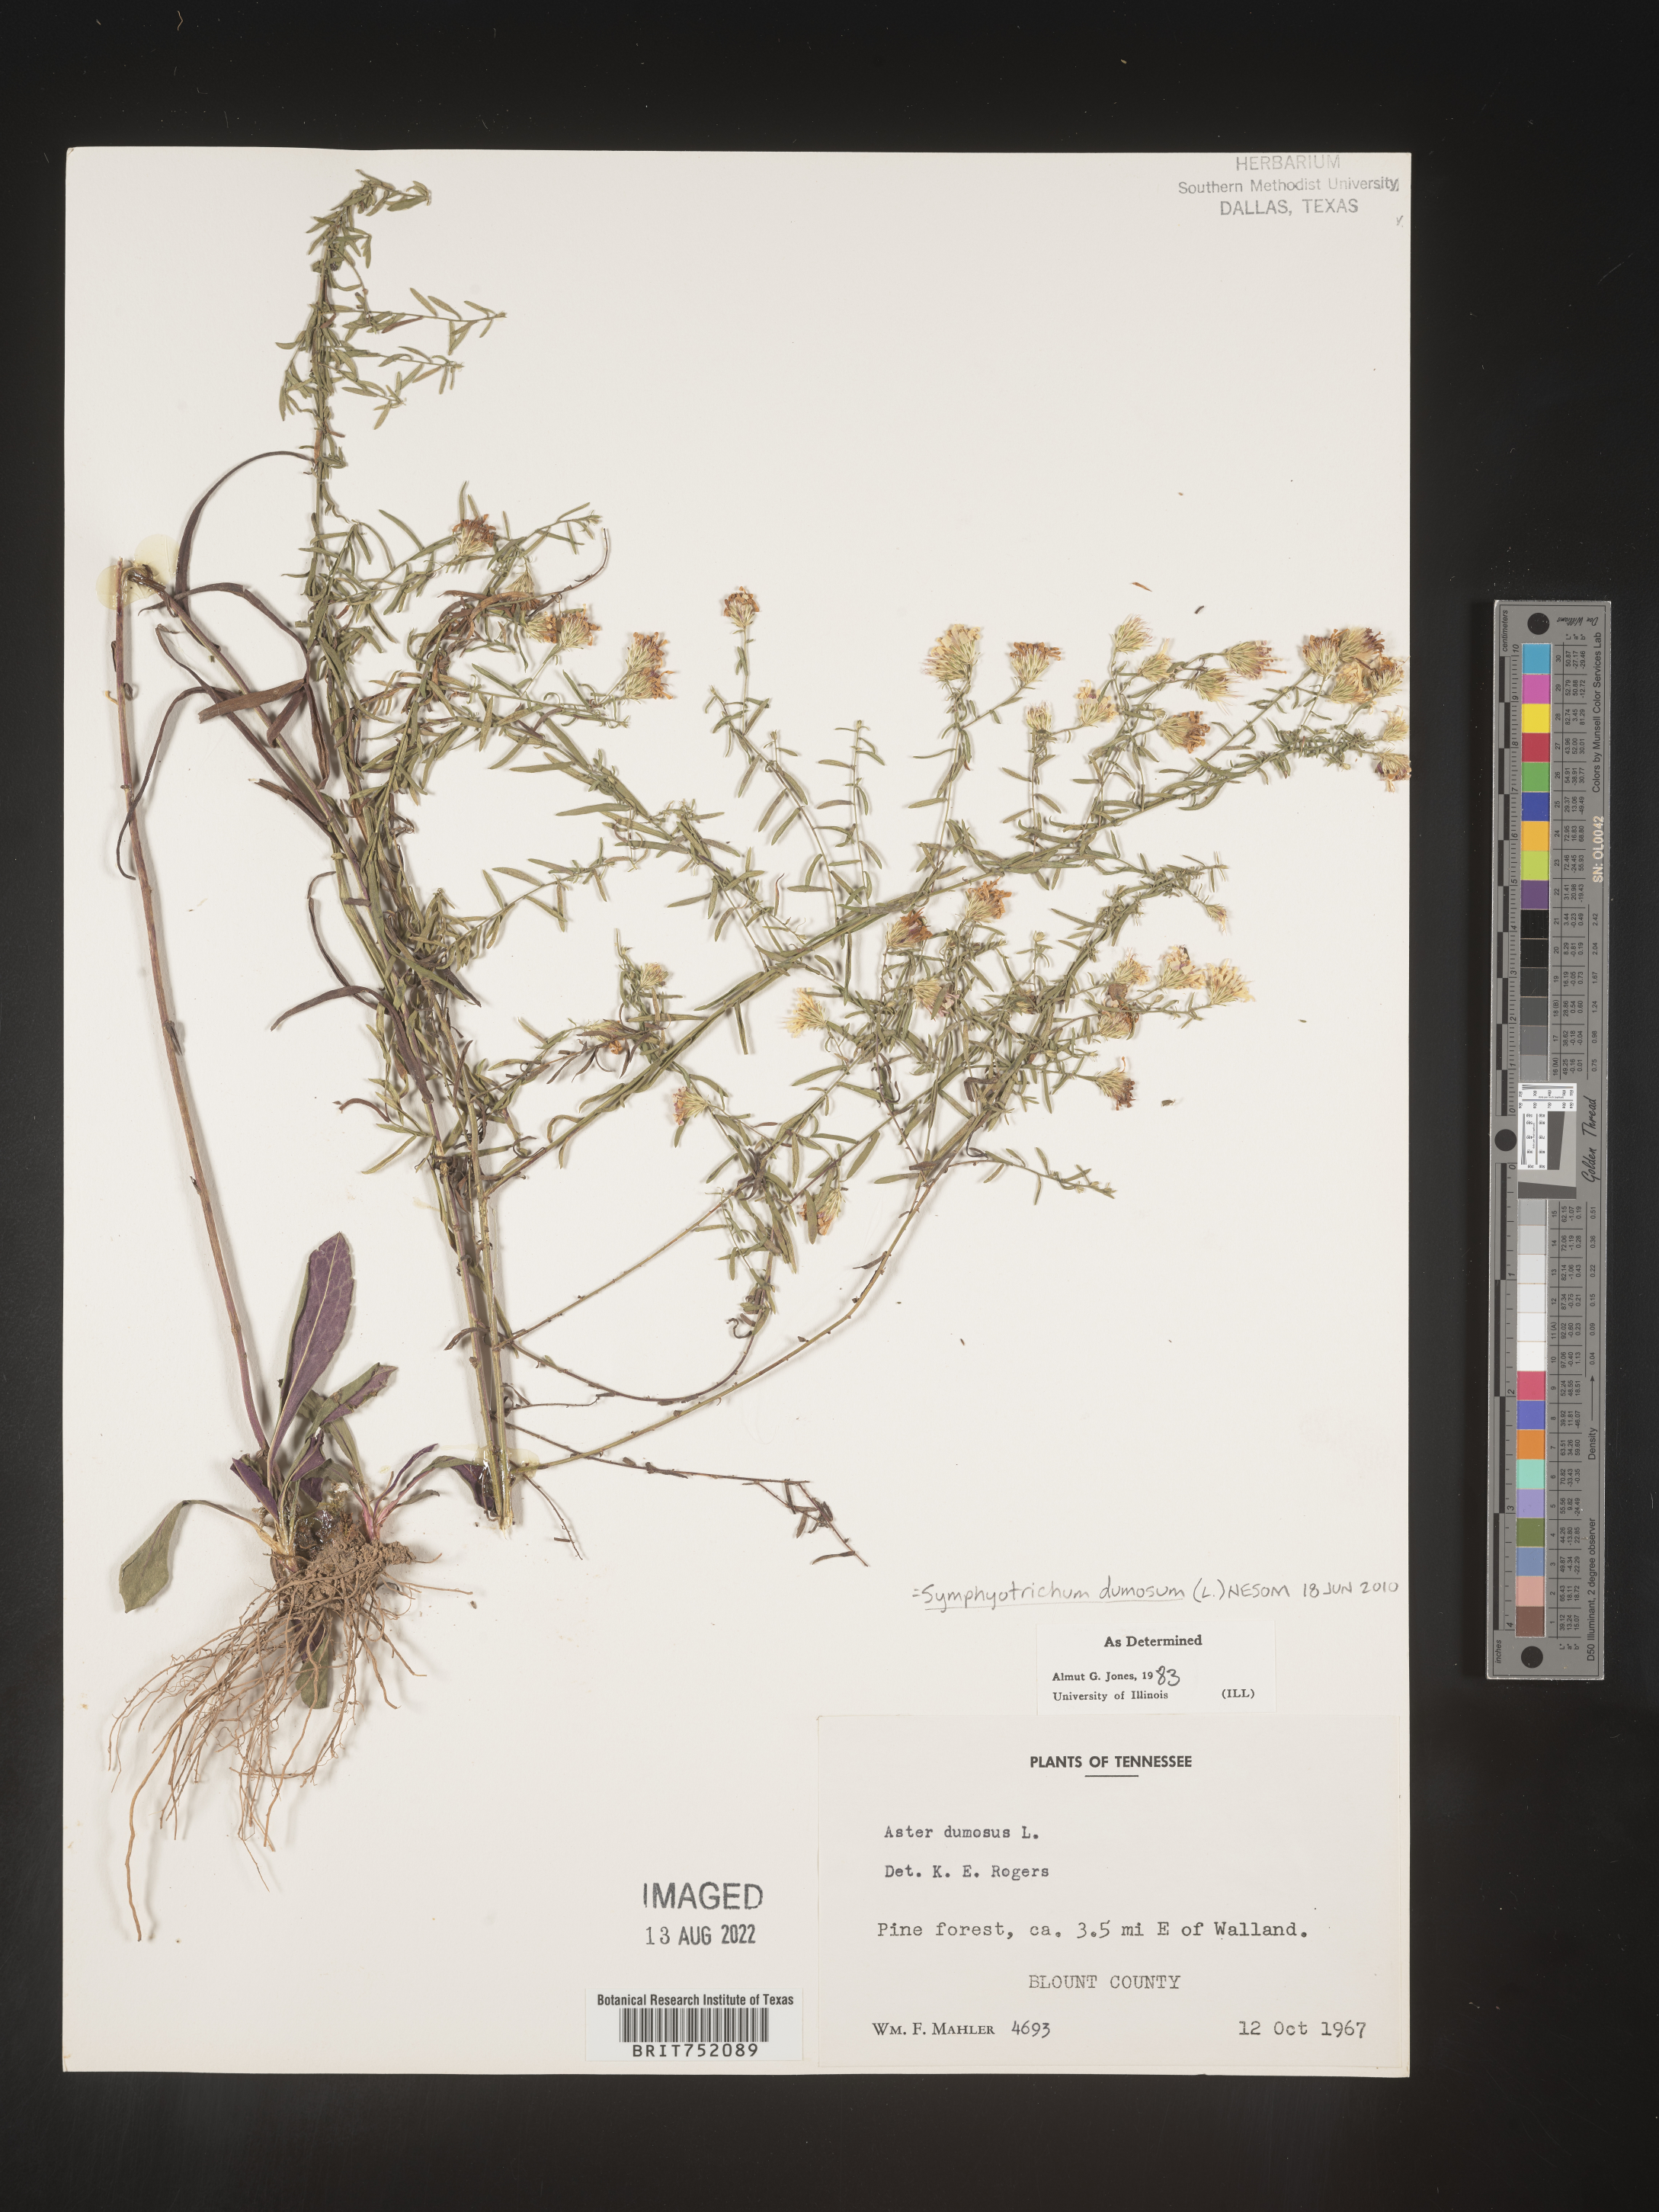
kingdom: Plantae
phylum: Tracheophyta
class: Magnoliopsida
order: Asterales
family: Asteraceae
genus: Symphyotrichum
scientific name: Symphyotrichum dumosum
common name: Bushy aster
